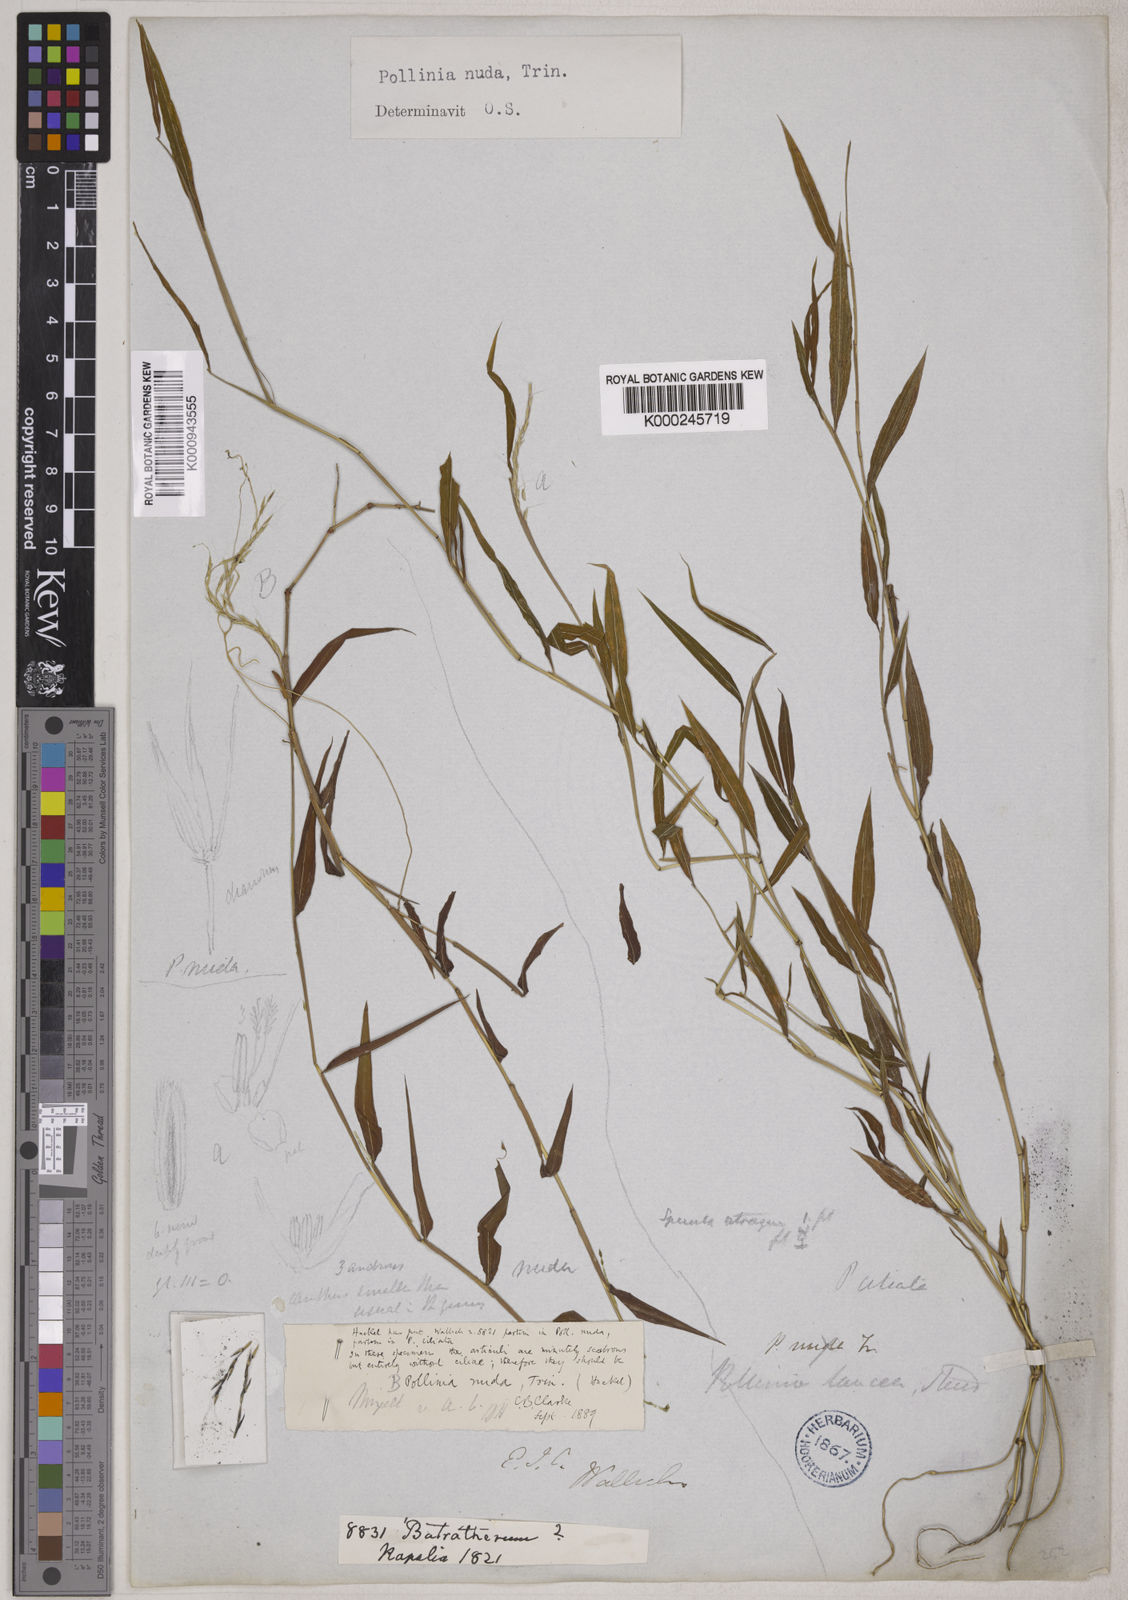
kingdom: Plantae
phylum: Tracheophyta
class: Liliopsida
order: Poales
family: Poaceae
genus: Microstegium
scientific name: Microstegium nudum
